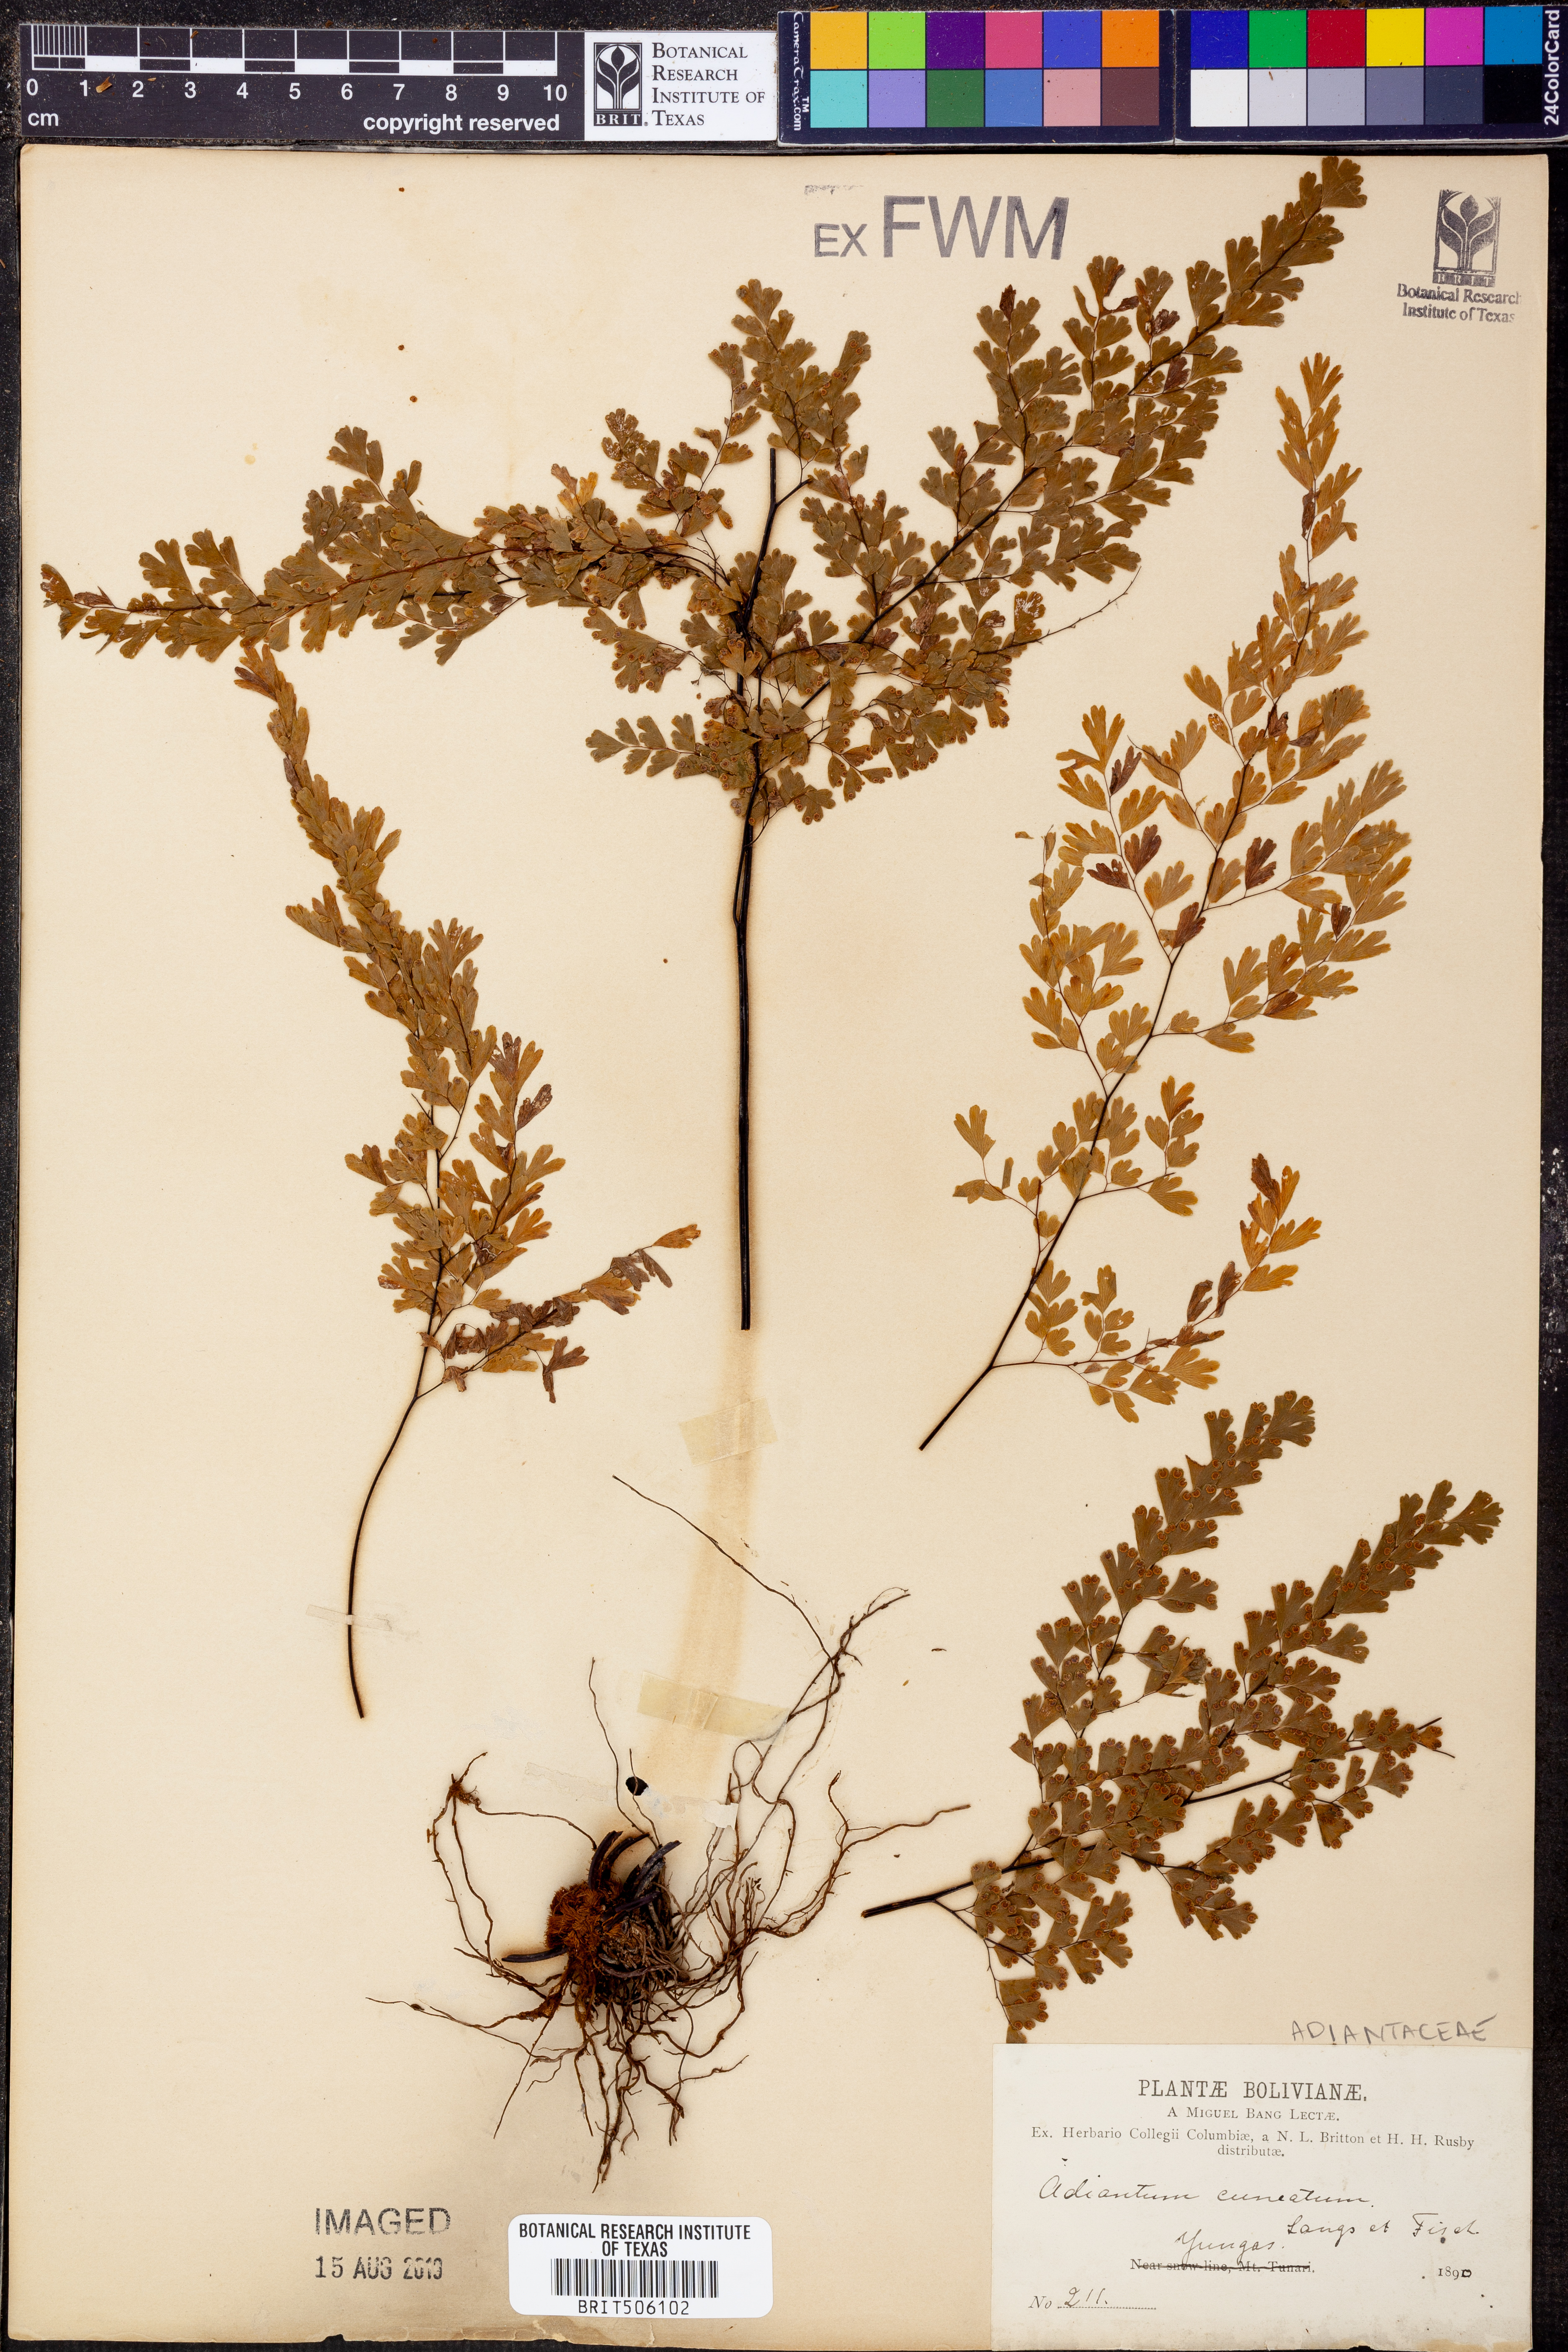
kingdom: Plantae
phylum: Tracheophyta
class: Polypodiopsida
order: Polypodiales
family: Pteridaceae
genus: Adiantum
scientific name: Adiantum raddianum
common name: Delta maidenhair fern
